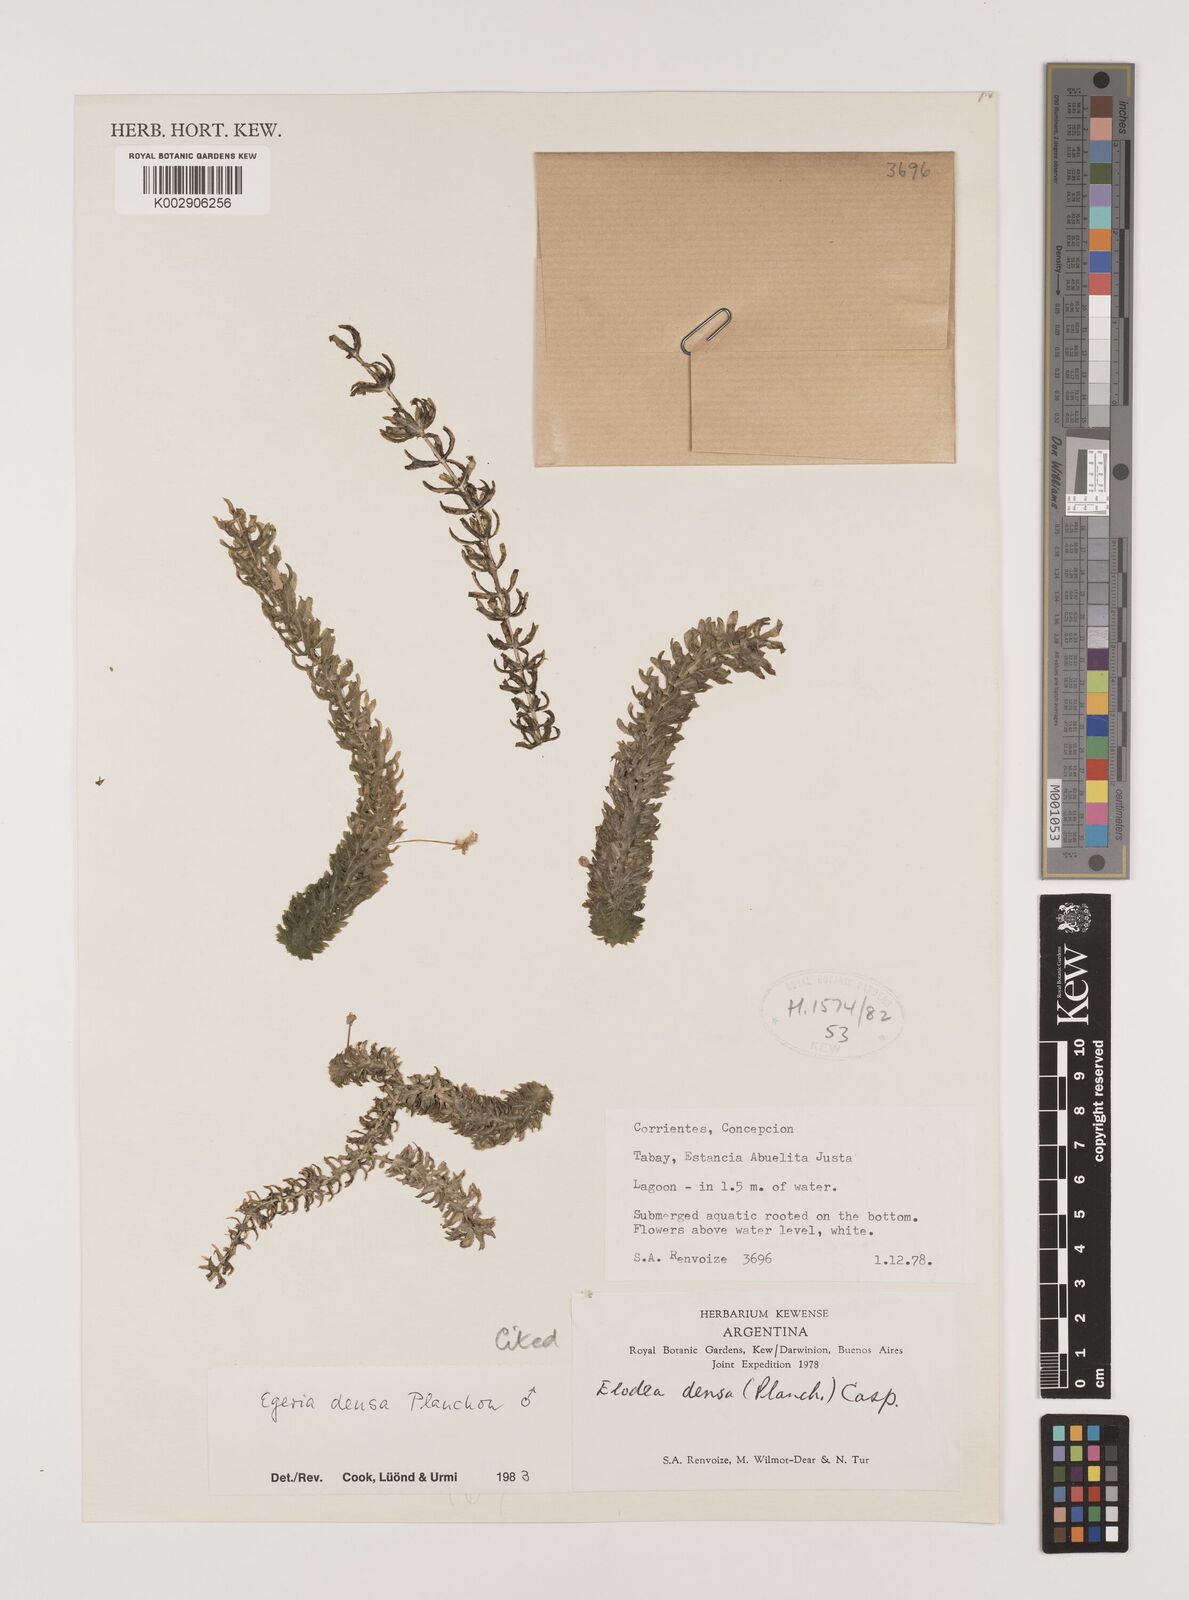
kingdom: Plantae
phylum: Tracheophyta
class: Liliopsida
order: Alismatales
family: Hydrocharitaceae
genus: Elodea
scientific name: Elodea densa
